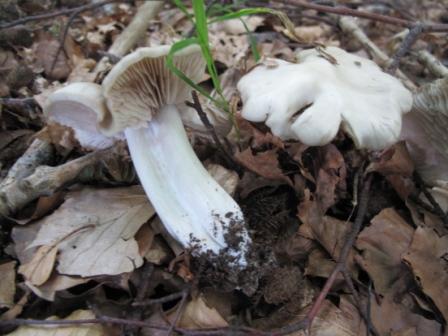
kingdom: Fungi
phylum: Basidiomycota
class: Agaricomycetes
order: Agaricales
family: Entolomataceae
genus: Entoloma
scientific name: Entoloma rhodopolium
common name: skov-rødblad
